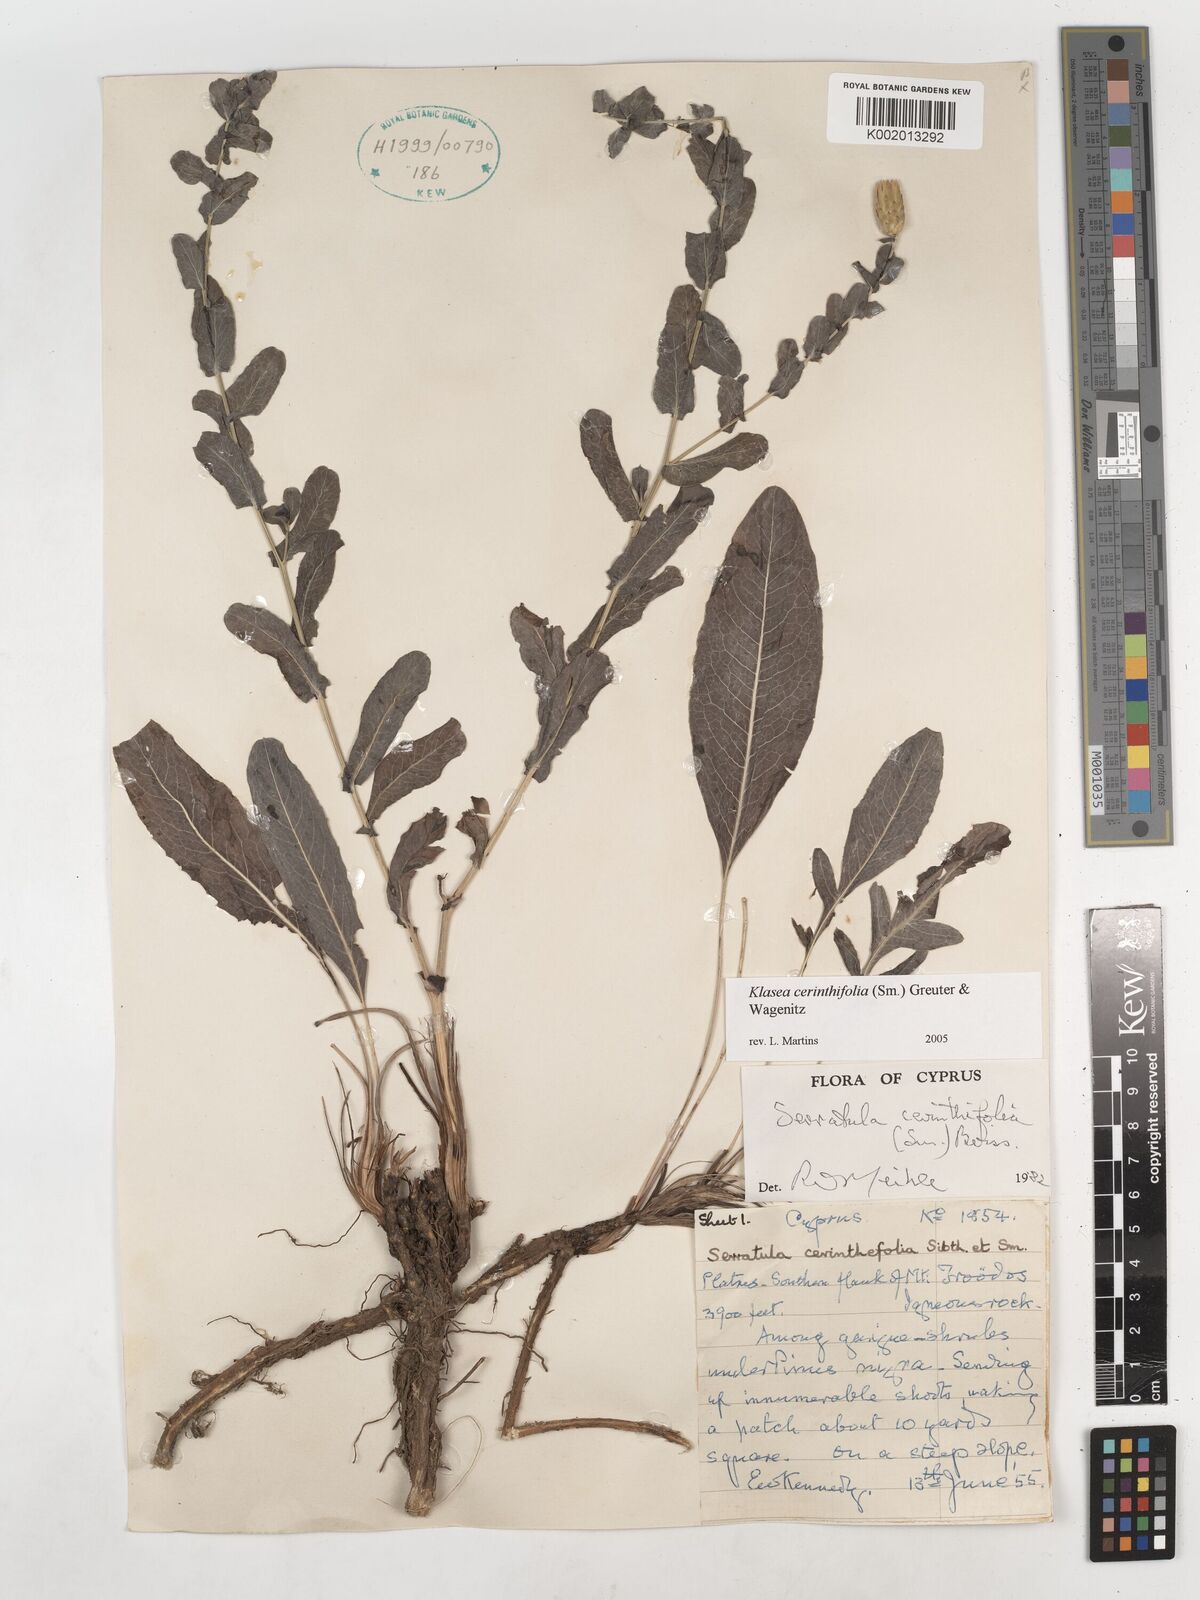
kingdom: Plantae
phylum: Tracheophyta
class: Magnoliopsida
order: Asterales
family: Asteraceae
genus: Klasea
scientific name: Klasea cerinthifolia
